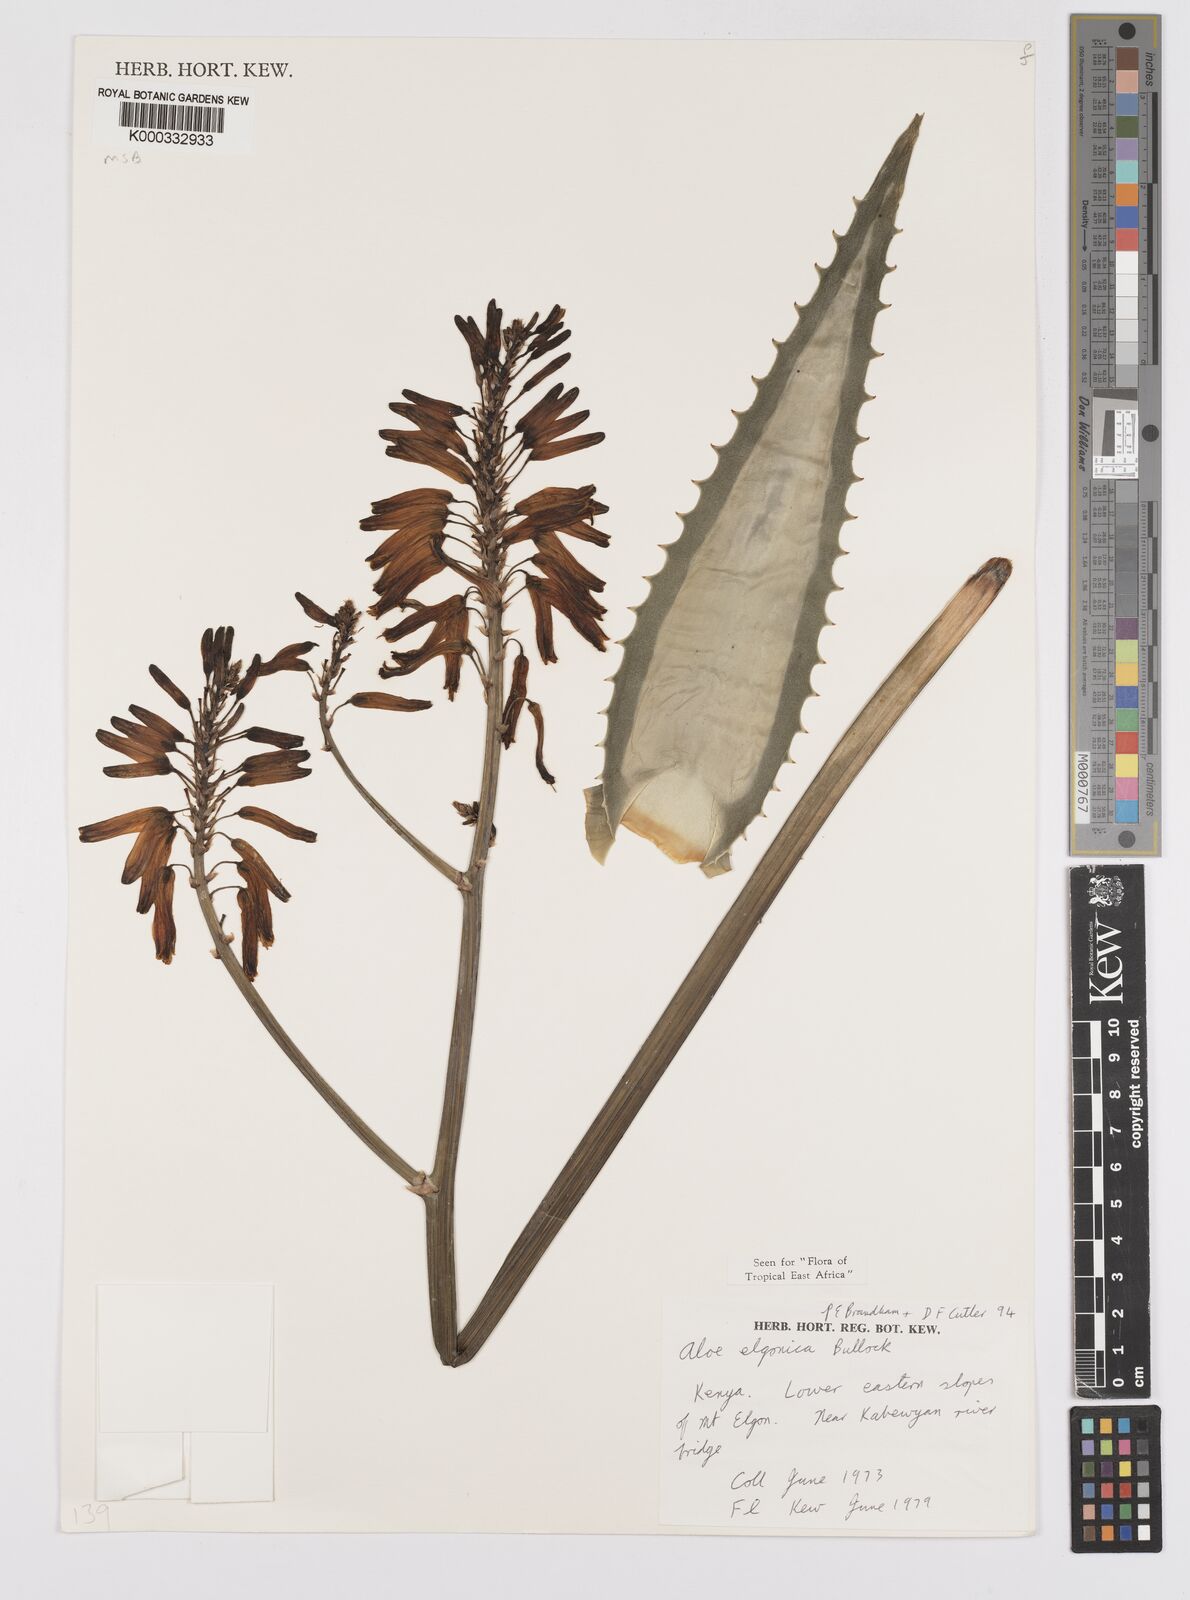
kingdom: Plantae
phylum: Tracheophyta
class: Liliopsida
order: Asparagales
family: Asphodelaceae
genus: Aloe
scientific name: Aloe elgonica
